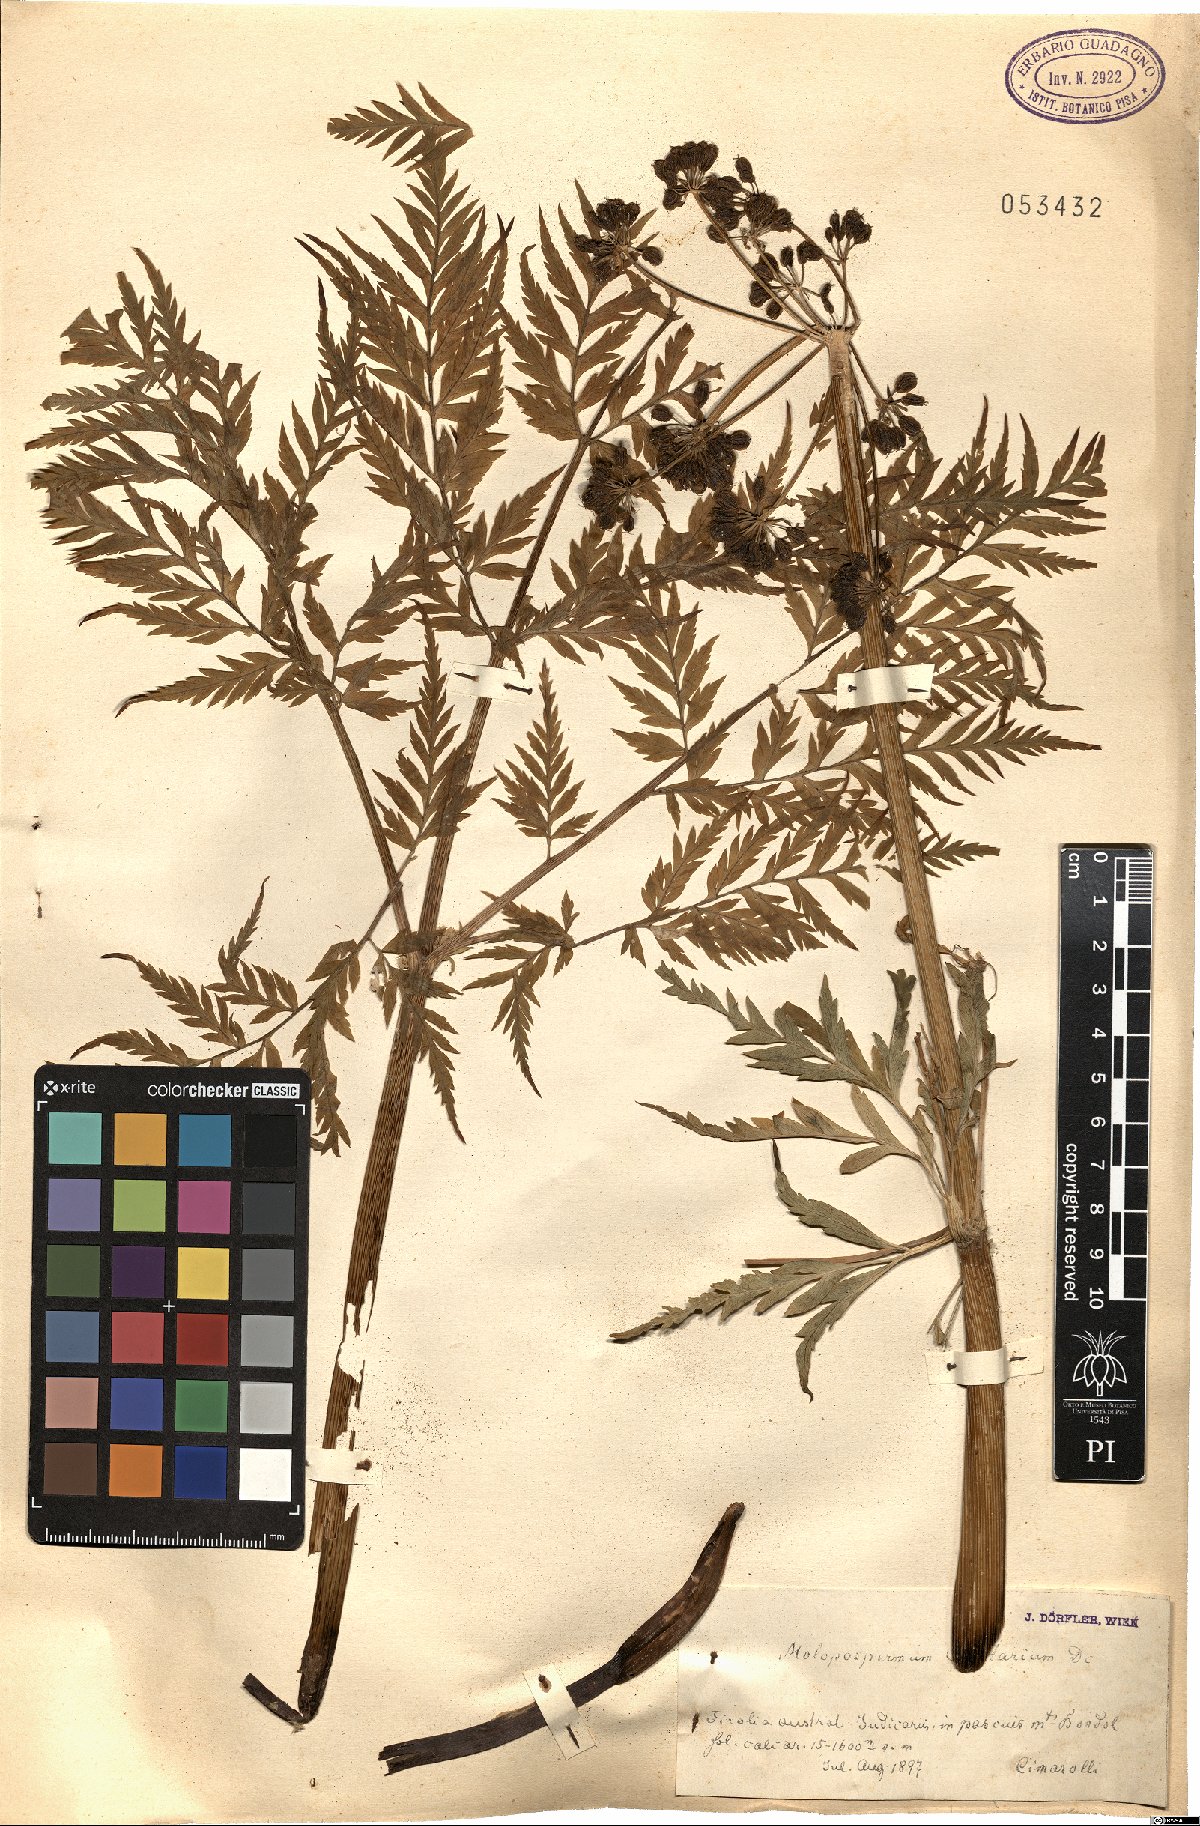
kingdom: Plantae
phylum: Tracheophyta
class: Magnoliopsida
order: Apiales
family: Apiaceae
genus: Molopospermum
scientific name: Molopospermum peloponnesiacum
